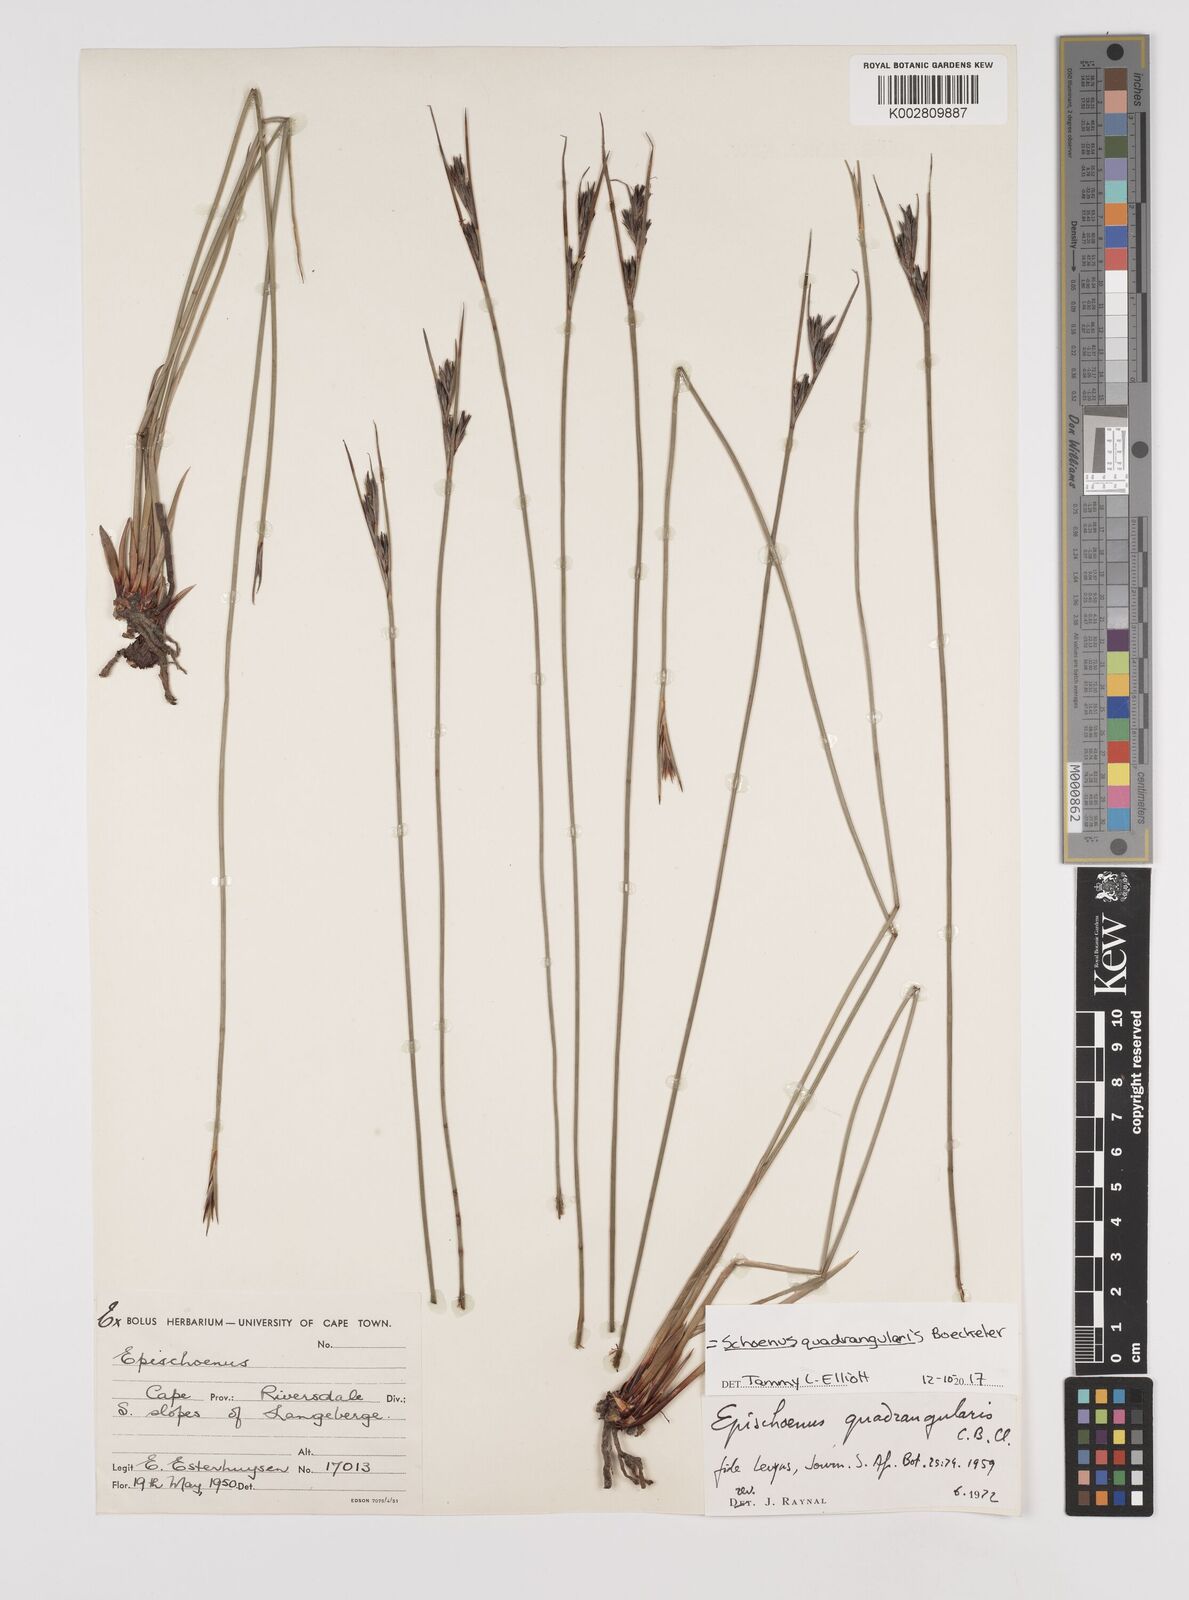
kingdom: Plantae
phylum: Tracheophyta
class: Liliopsida
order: Poales
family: Cyperaceae
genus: Schoenus
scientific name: Schoenus
